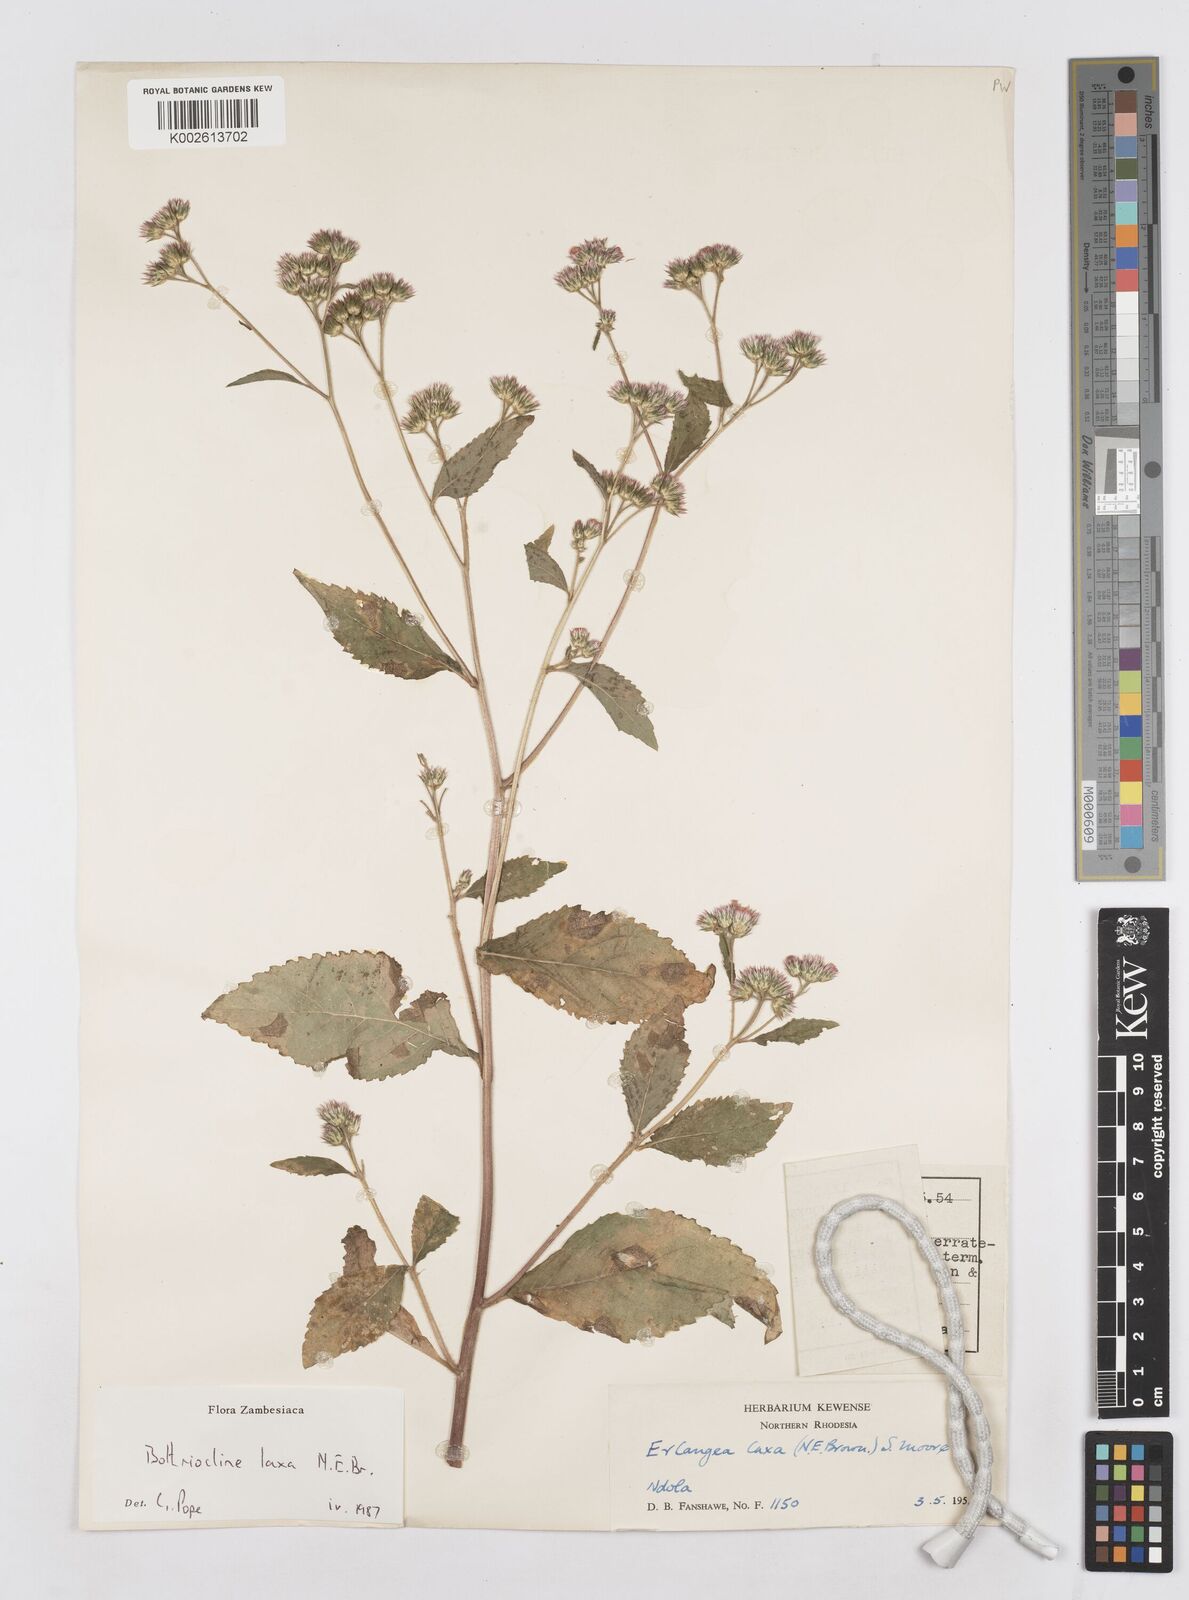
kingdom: Plantae
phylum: Tracheophyta
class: Magnoliopsida
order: Asterales
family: Asteraceae
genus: Bothriocline
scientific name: Bothriocline laxa
